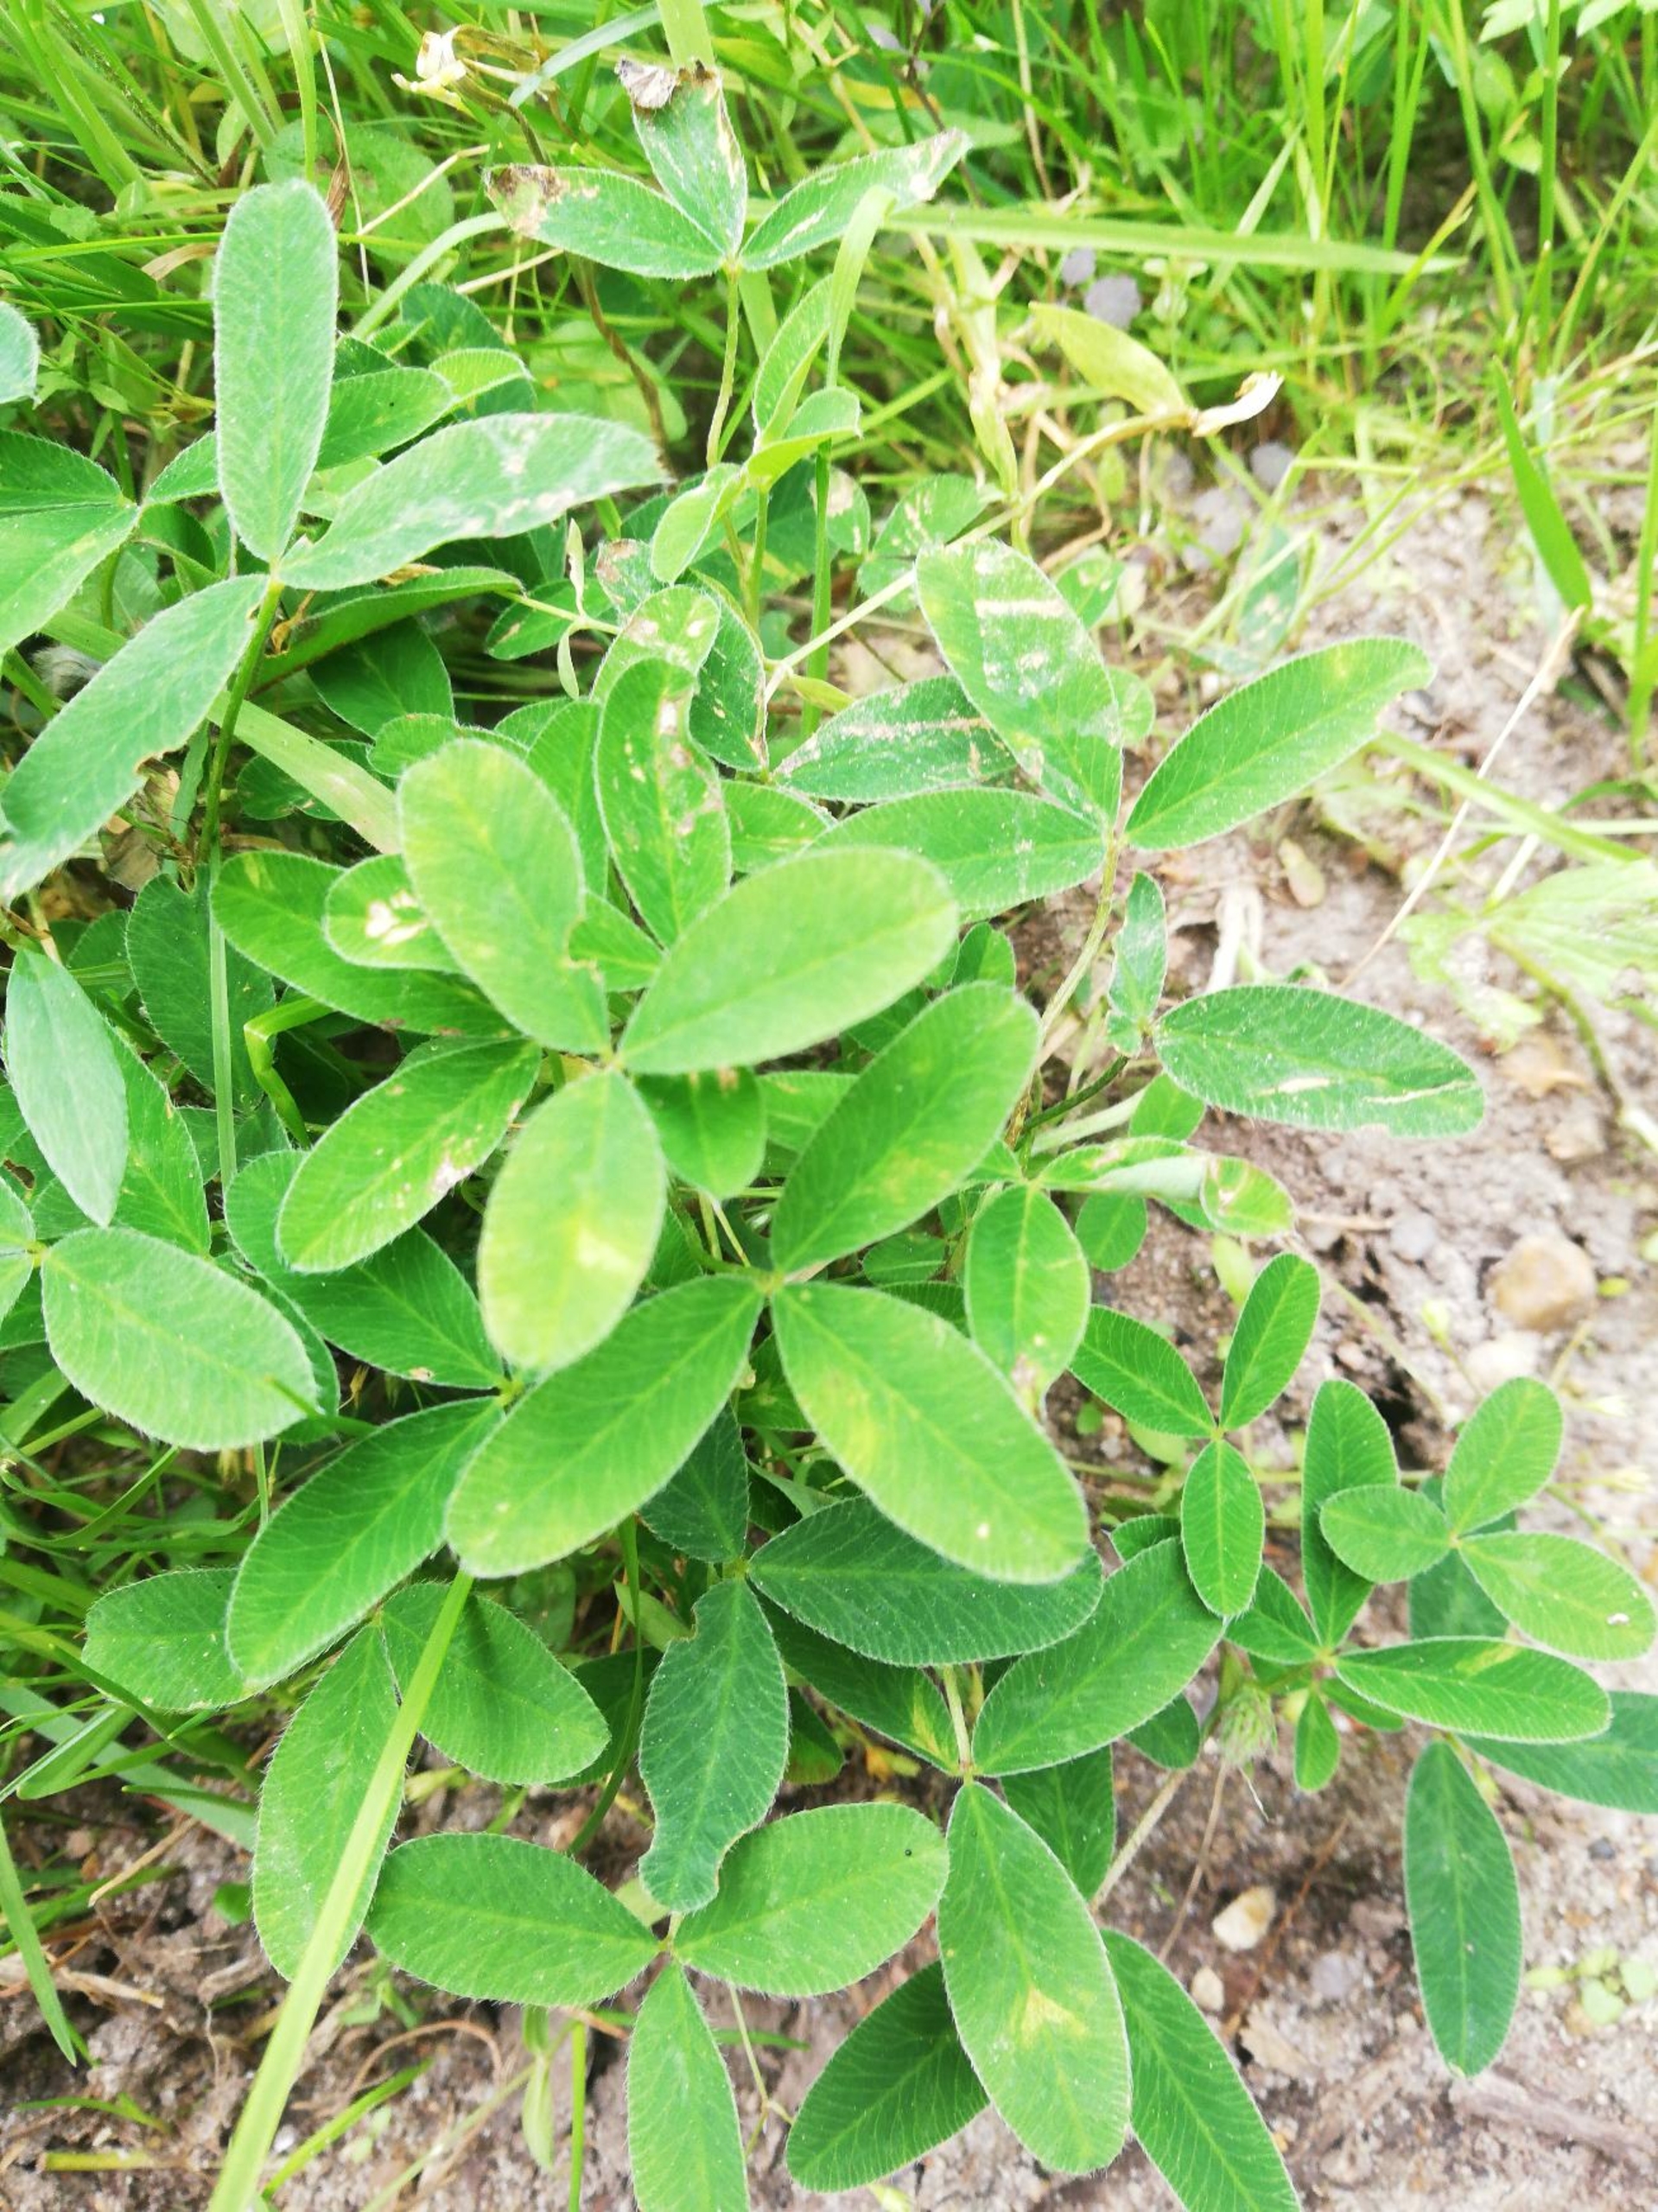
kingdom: Plantae
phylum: Tracheophyta
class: Magnoliopsida
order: Fabales
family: Fabaceae
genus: Trifolium
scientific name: Trifolium medium
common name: Bugtet kløver
